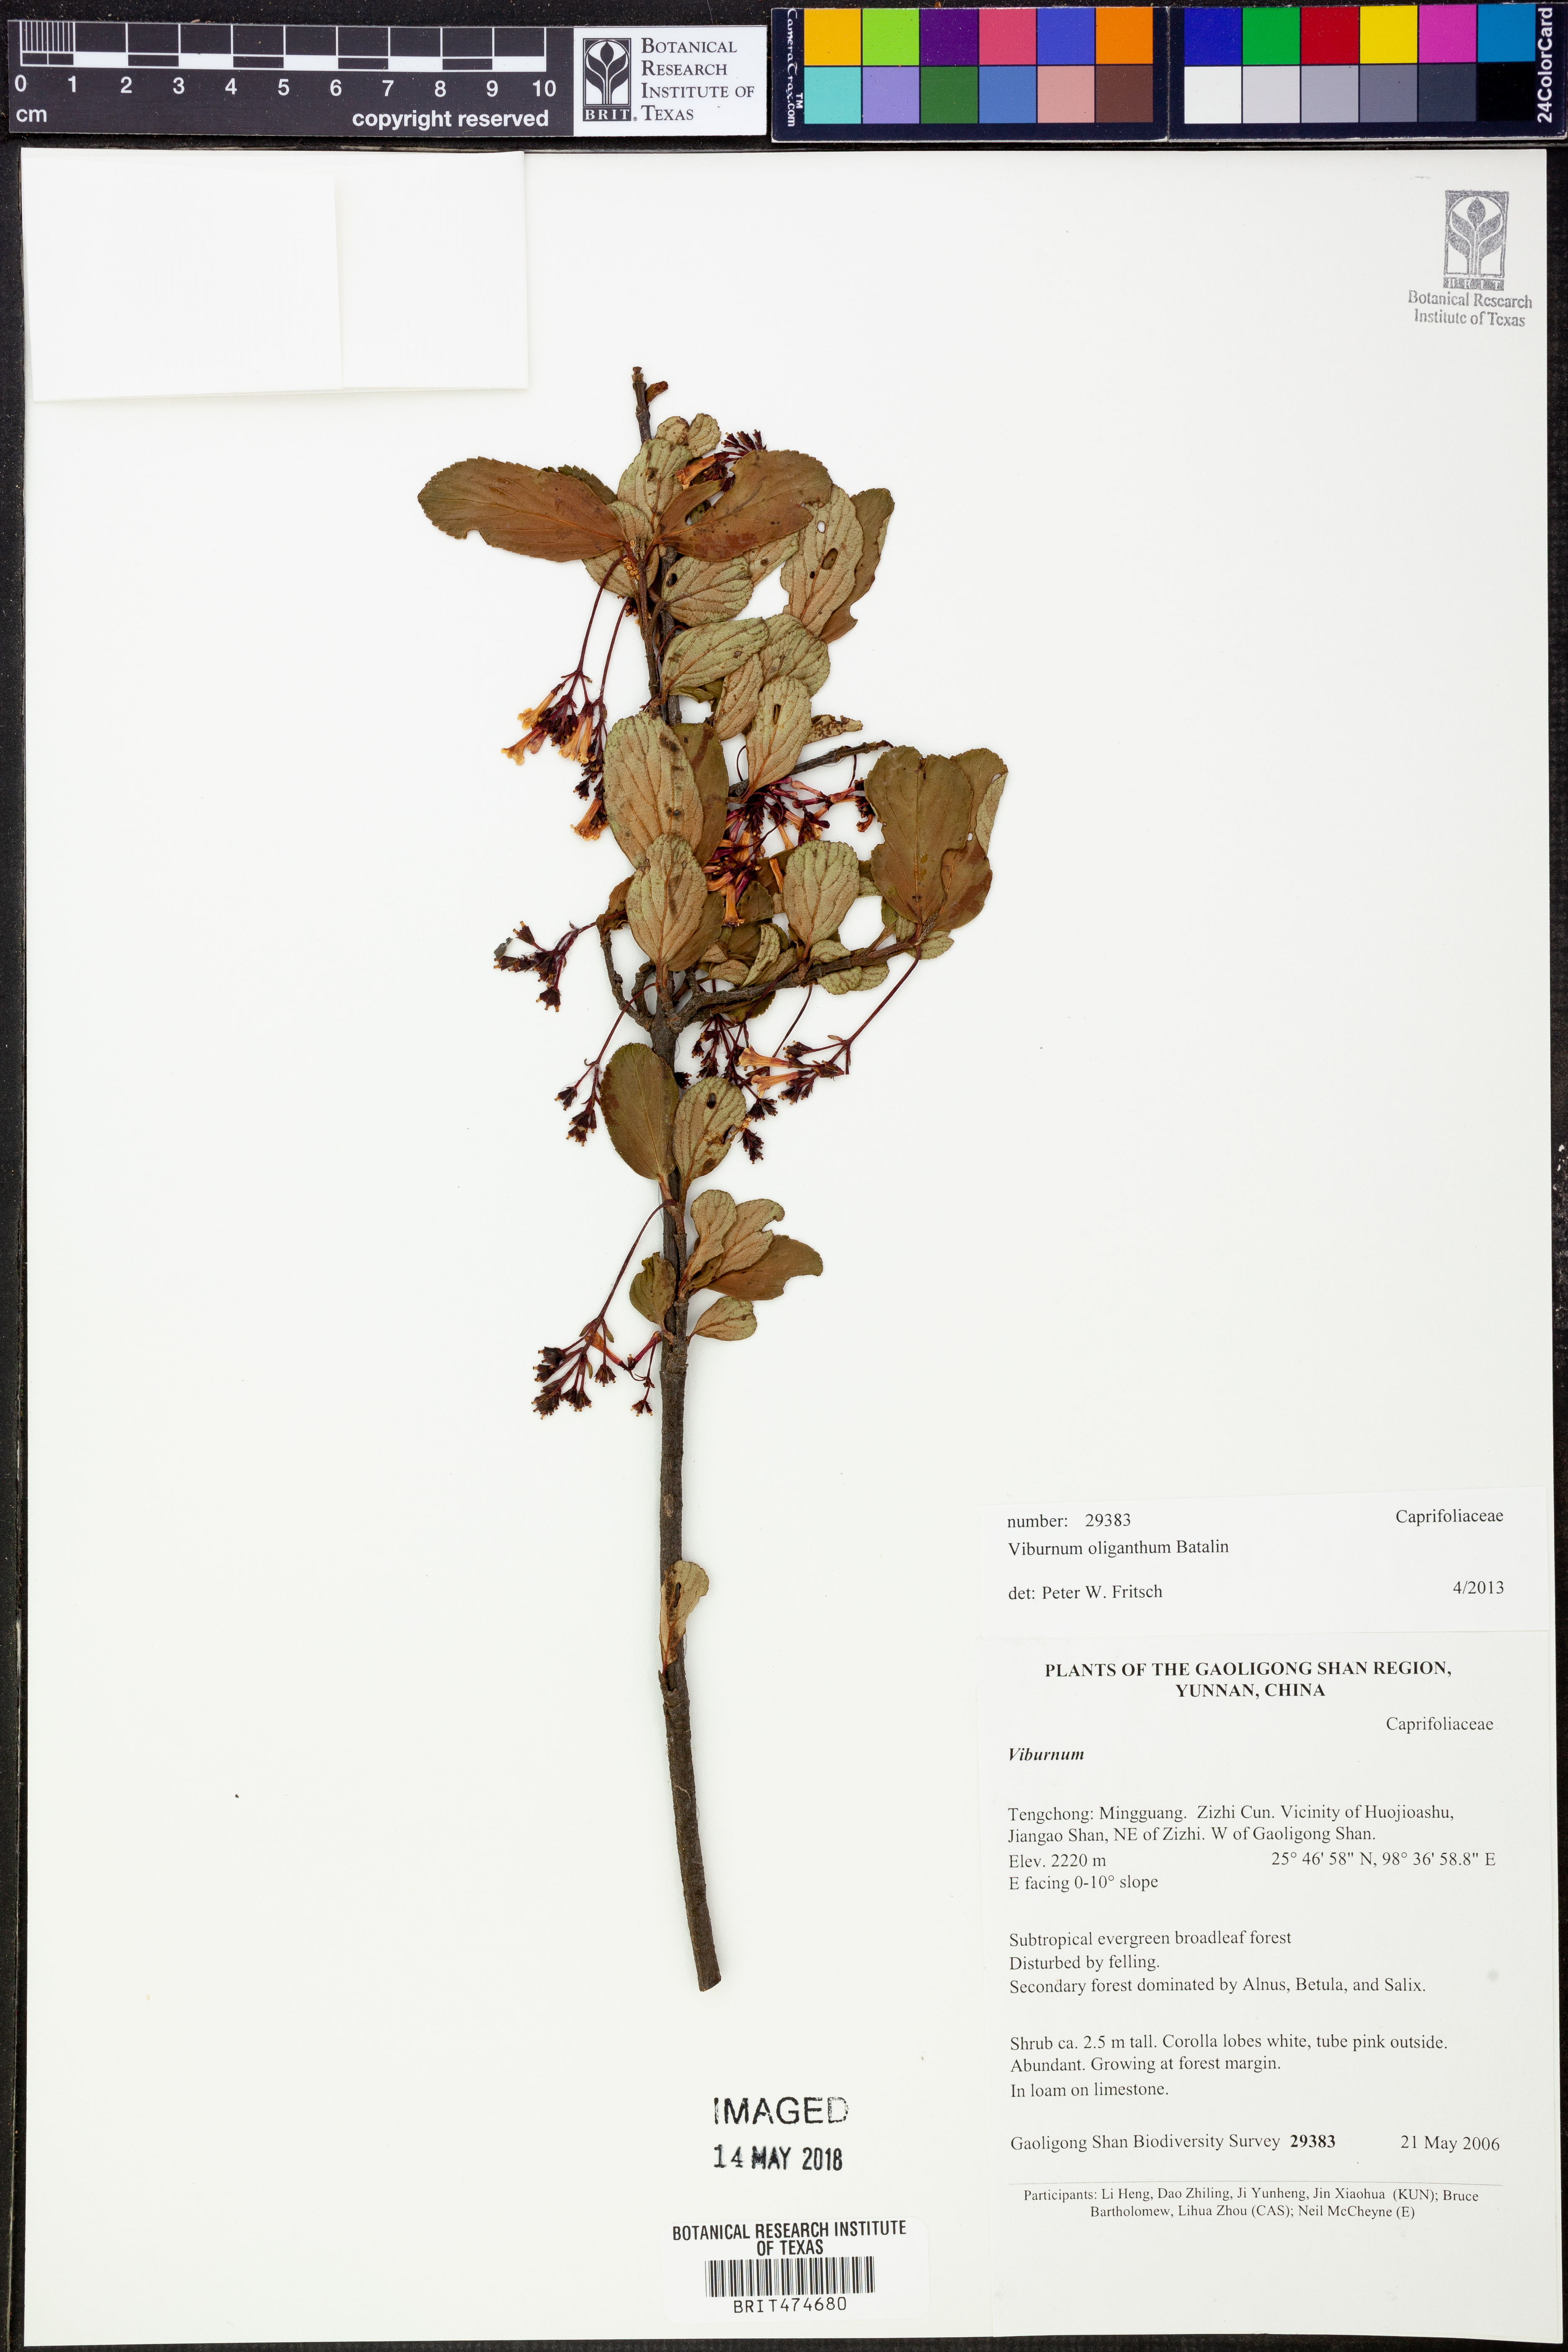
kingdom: Plantae
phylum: Tracheophyta
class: Magnoliopsida
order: Dipsacales
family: Viburnaceae
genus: Viburnum
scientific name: Viburnum oliganthum
